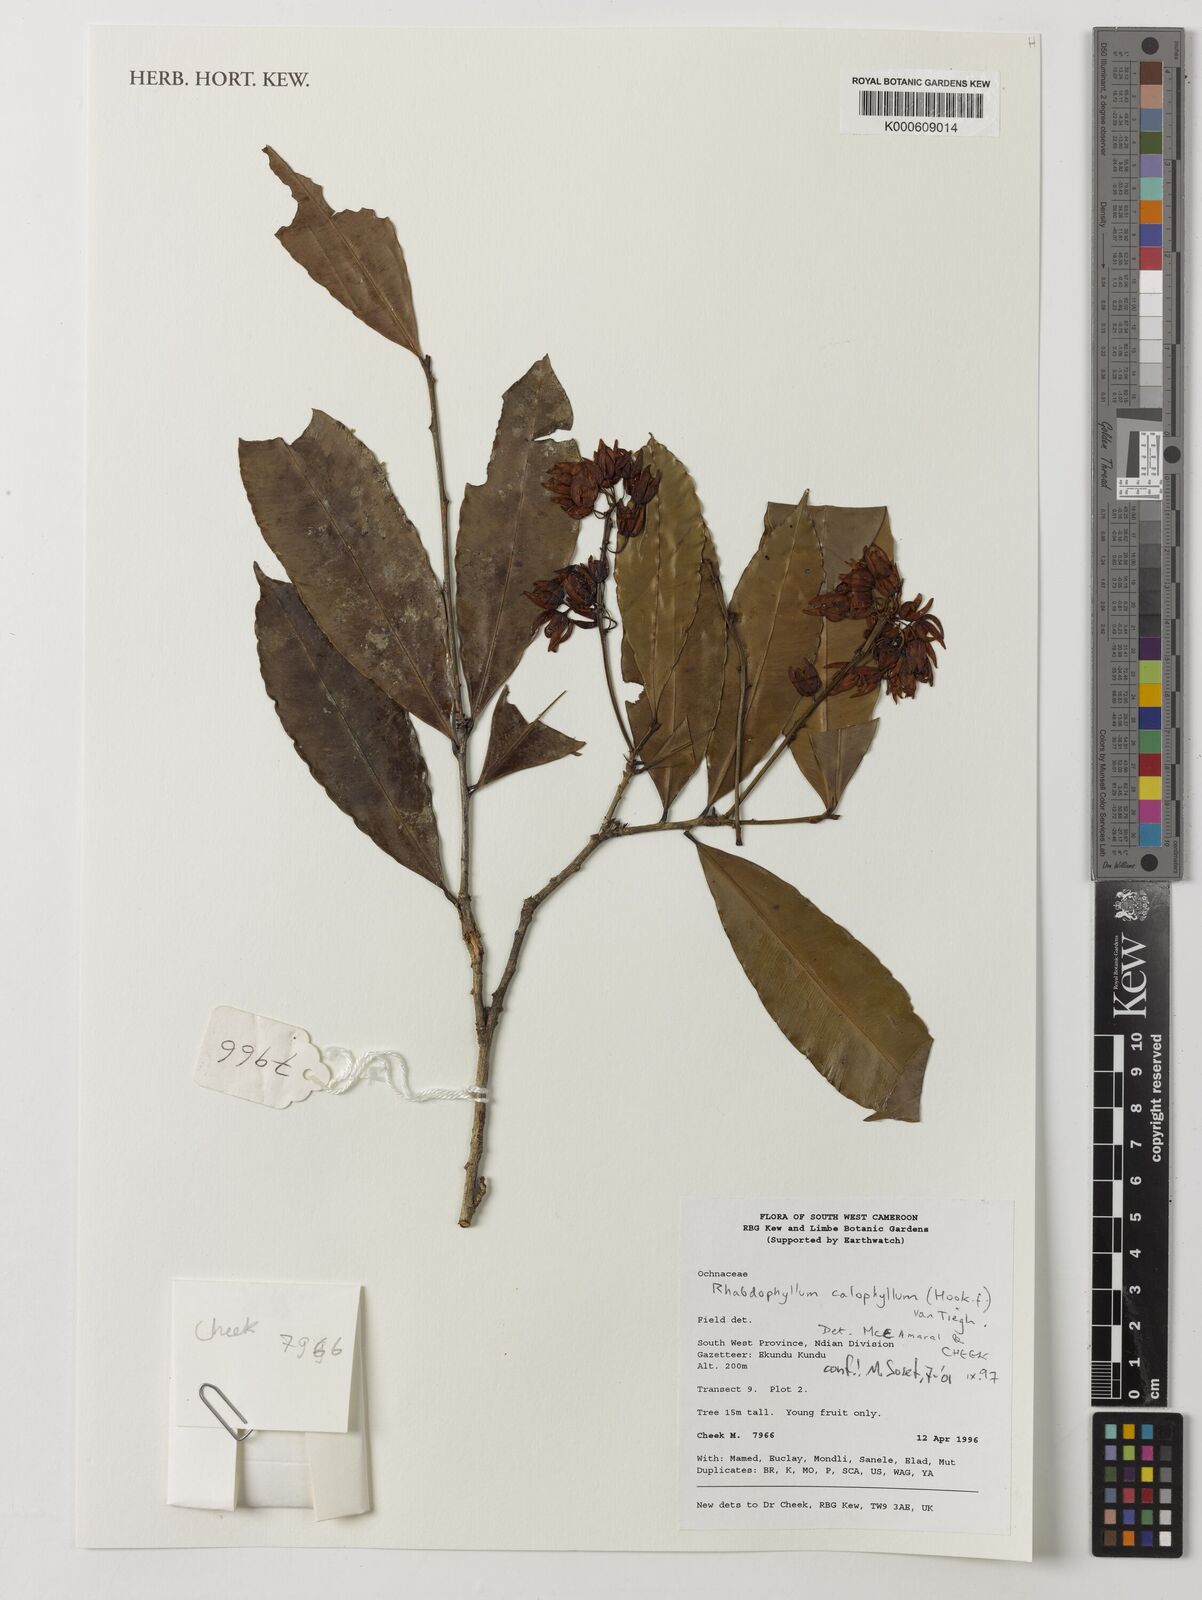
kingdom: Plantae
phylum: Tracheophyta
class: Magnoliopsida
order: Malpighiales
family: Ochnaceae
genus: Rhabdophyllum
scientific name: Rhabdophyllum calophyllum
